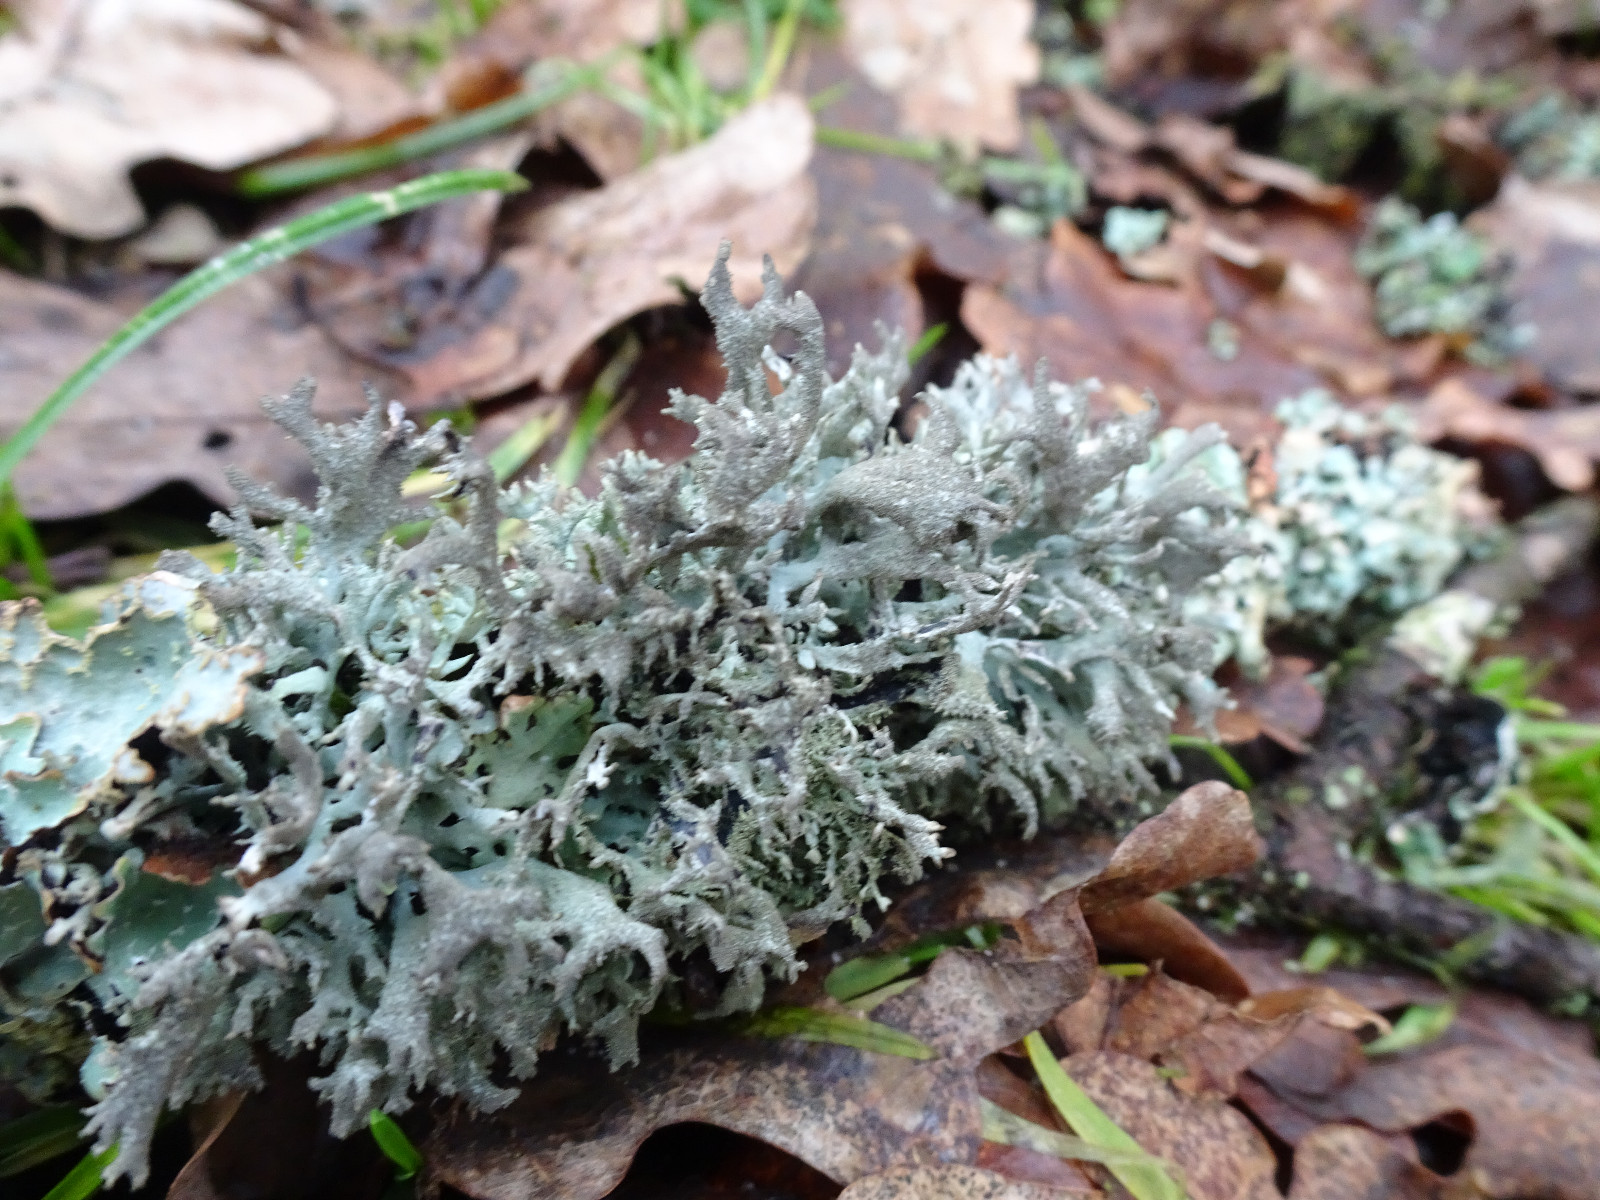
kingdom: Fungi
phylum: Ascomycota
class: Lecanoromycetes
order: Lecanorales
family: Parmeliaceae
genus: Pseudevernia
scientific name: Pseudevernia furfuracea
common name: grå fyrrelav
